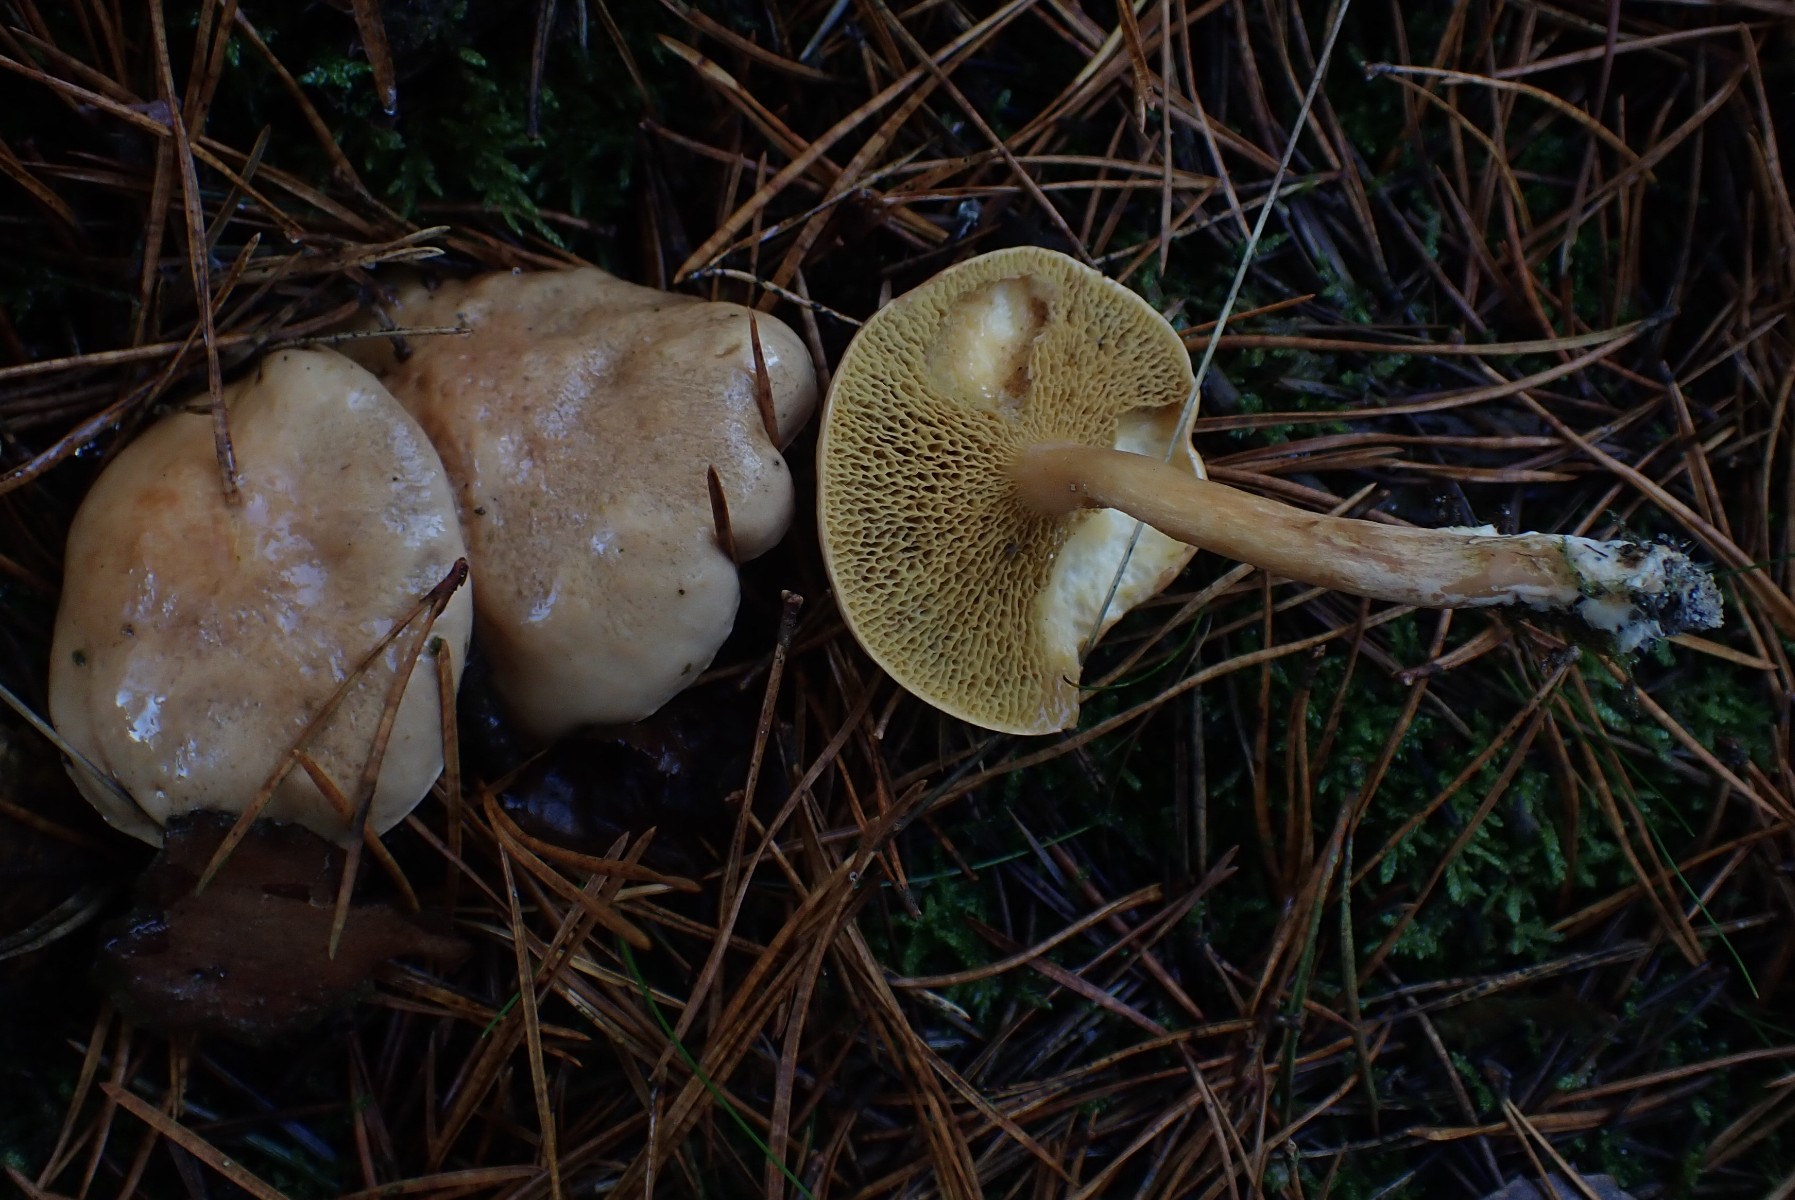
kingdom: Fungi
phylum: Basidiomycota
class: Agaricomycetes
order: Boletales
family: Suillaceae
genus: Suillus
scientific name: Suillus bovinus
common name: grovporet slimrørhat
